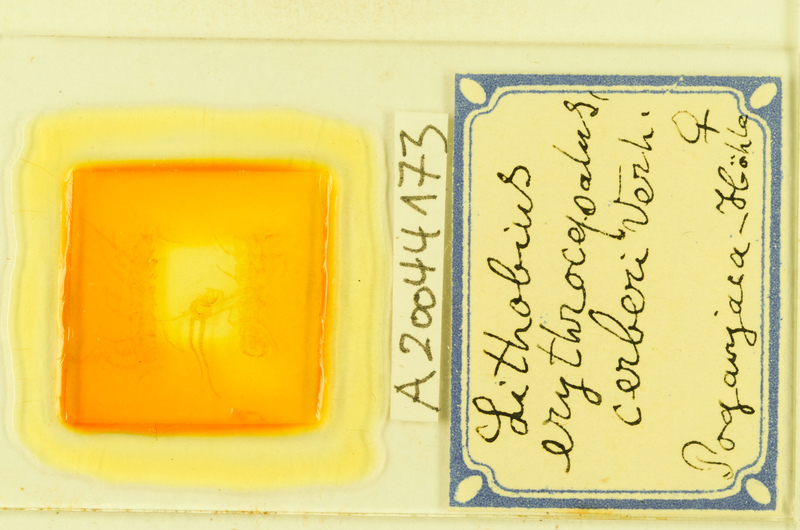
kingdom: Animalia
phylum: Arthropoda
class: Chilopoda
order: Lithobiomorpha
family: Lithobiidae
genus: Lithobius
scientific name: Lithobius stygius
